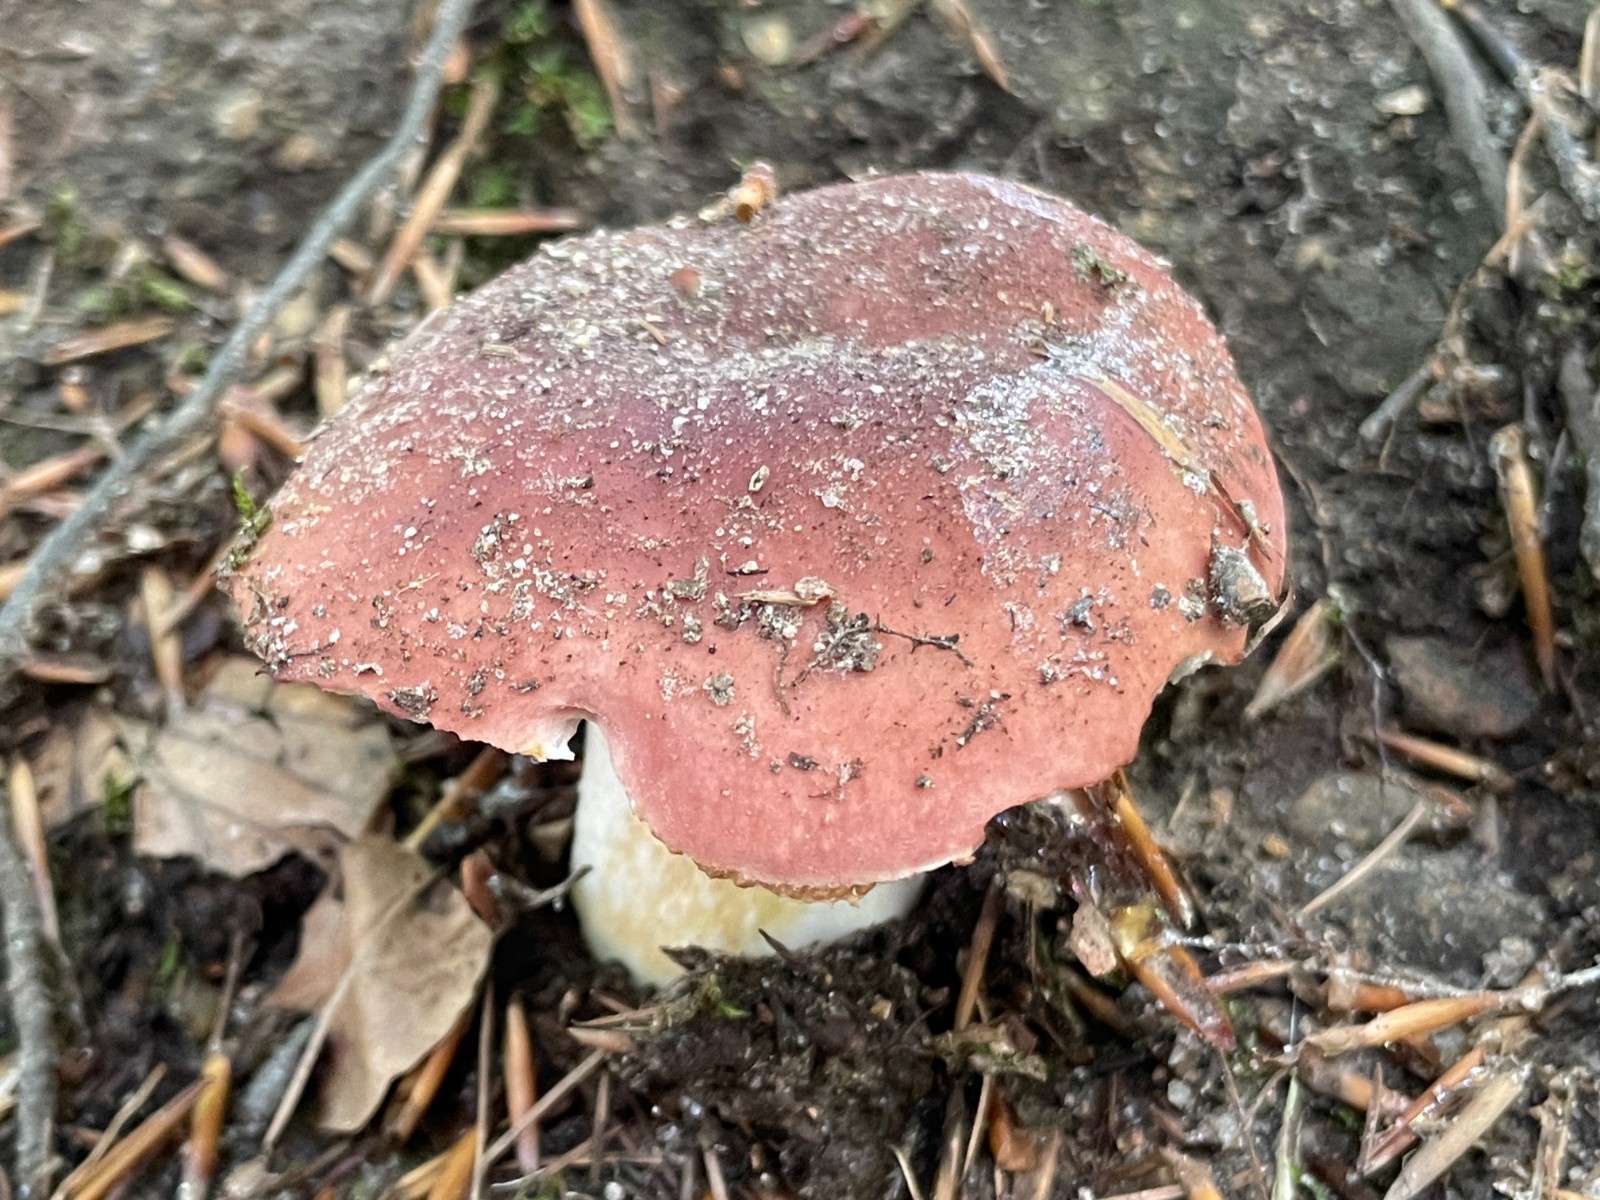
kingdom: Fungi
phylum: Basidiomycota
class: Agaricomycetes
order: Russulales
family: Russulaceae
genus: Russula
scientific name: Russula vesca
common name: spiselig skørhat
